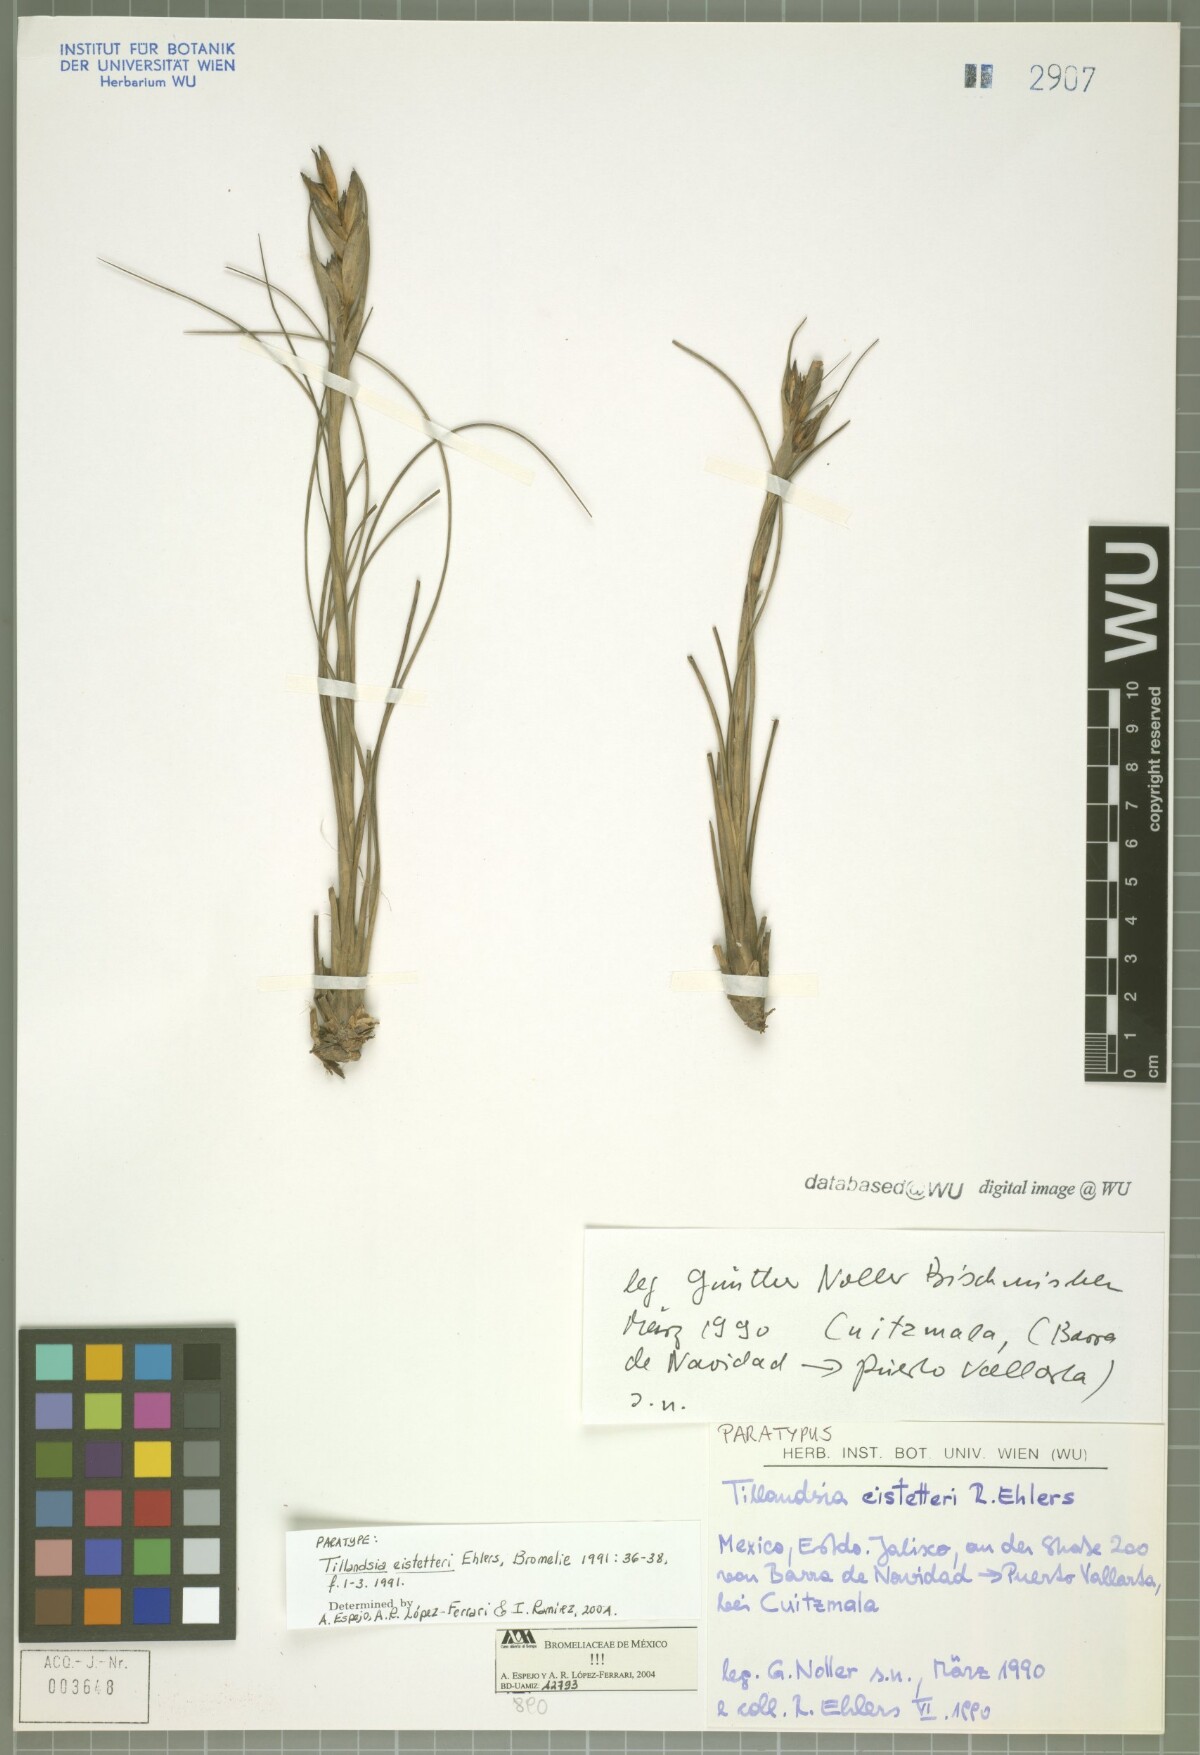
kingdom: Plantae
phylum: Tracheophyta
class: Liliopsida
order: Poales
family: Bromeliaceae
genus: Tillandsia
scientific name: Tillandsia eistetteri
